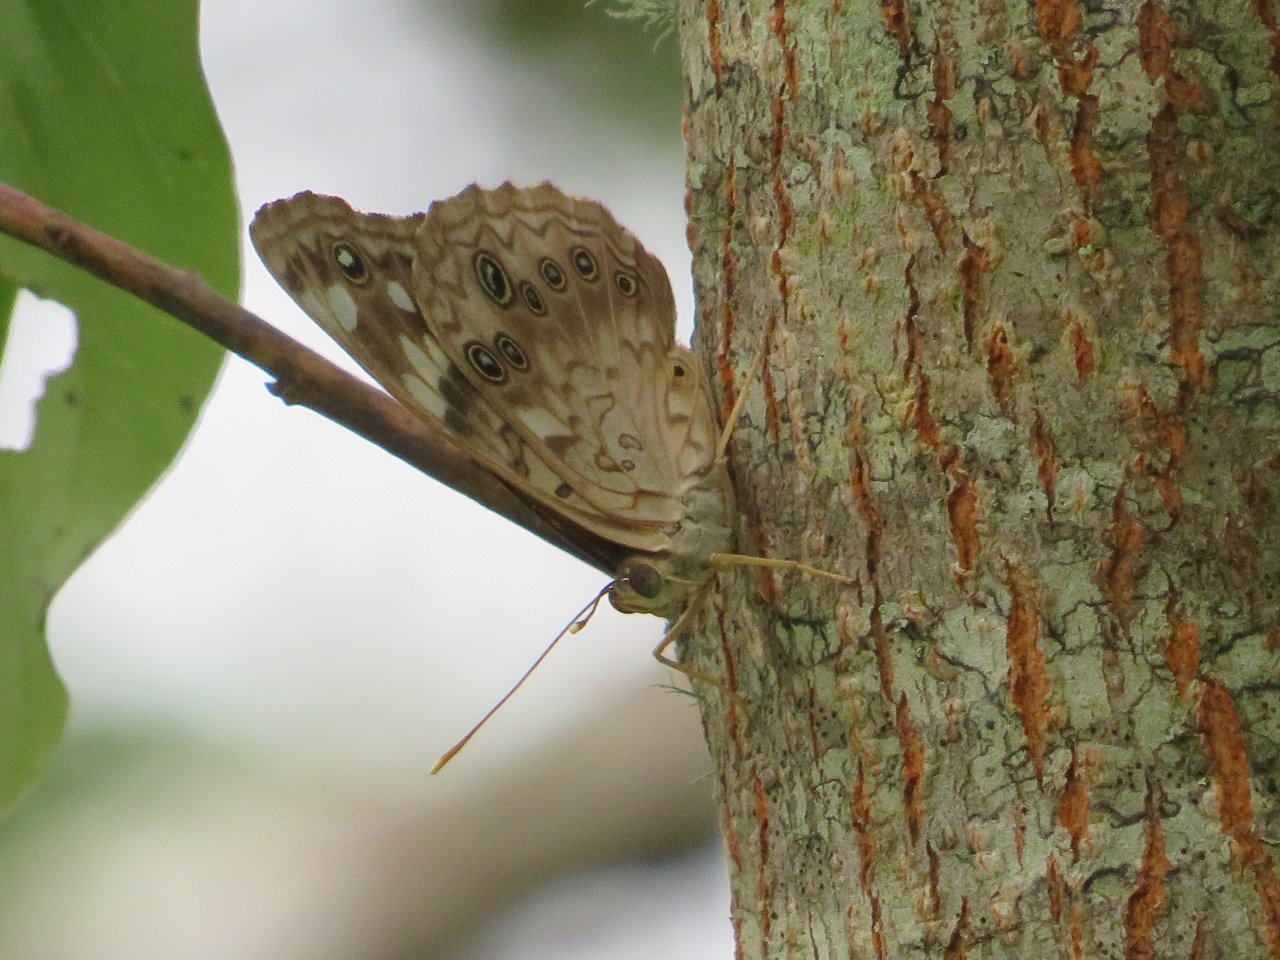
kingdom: Animalia
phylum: Arthropoda
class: Insecta
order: Lepidoptera
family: Nymphalidae
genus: Asterocampa
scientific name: Asterocampa celtis
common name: Hackberry Emperor
